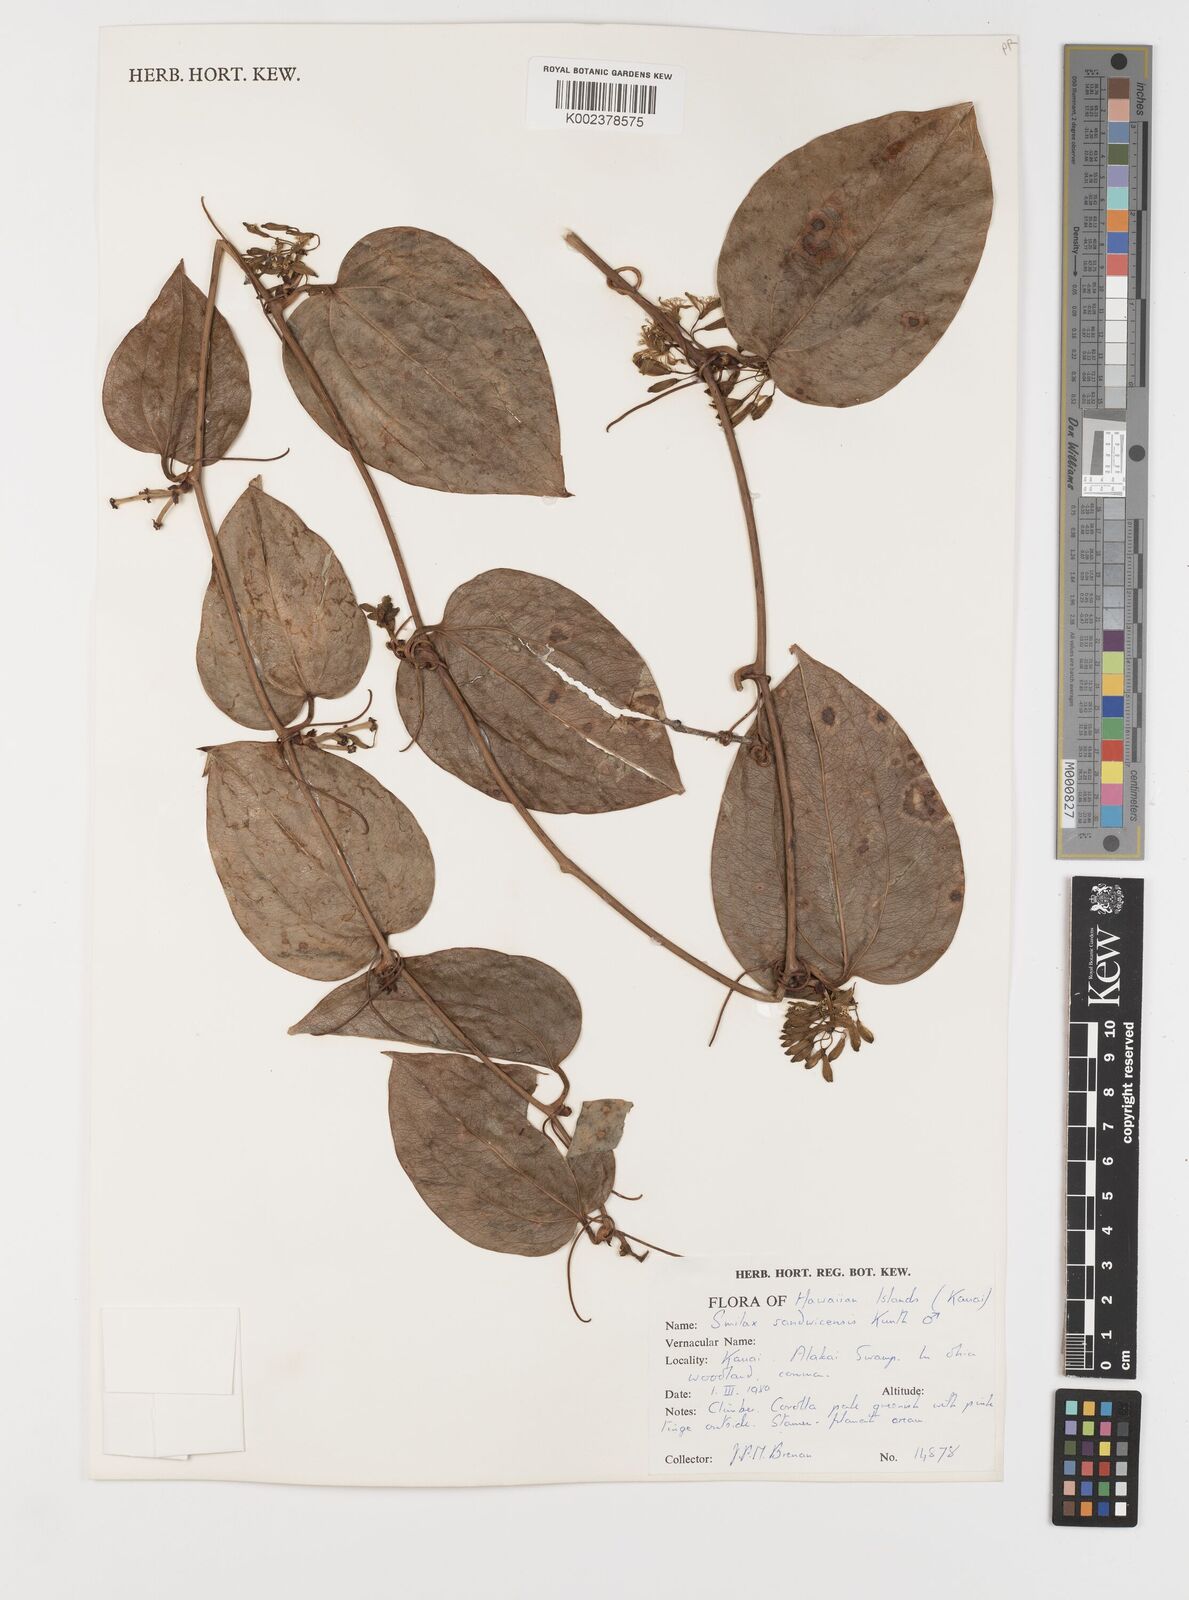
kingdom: Plantae
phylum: Tracheophyta
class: Liliopsida
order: Liliales
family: Smilacaceae
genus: Smilax
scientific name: Smilax melastomifolia
